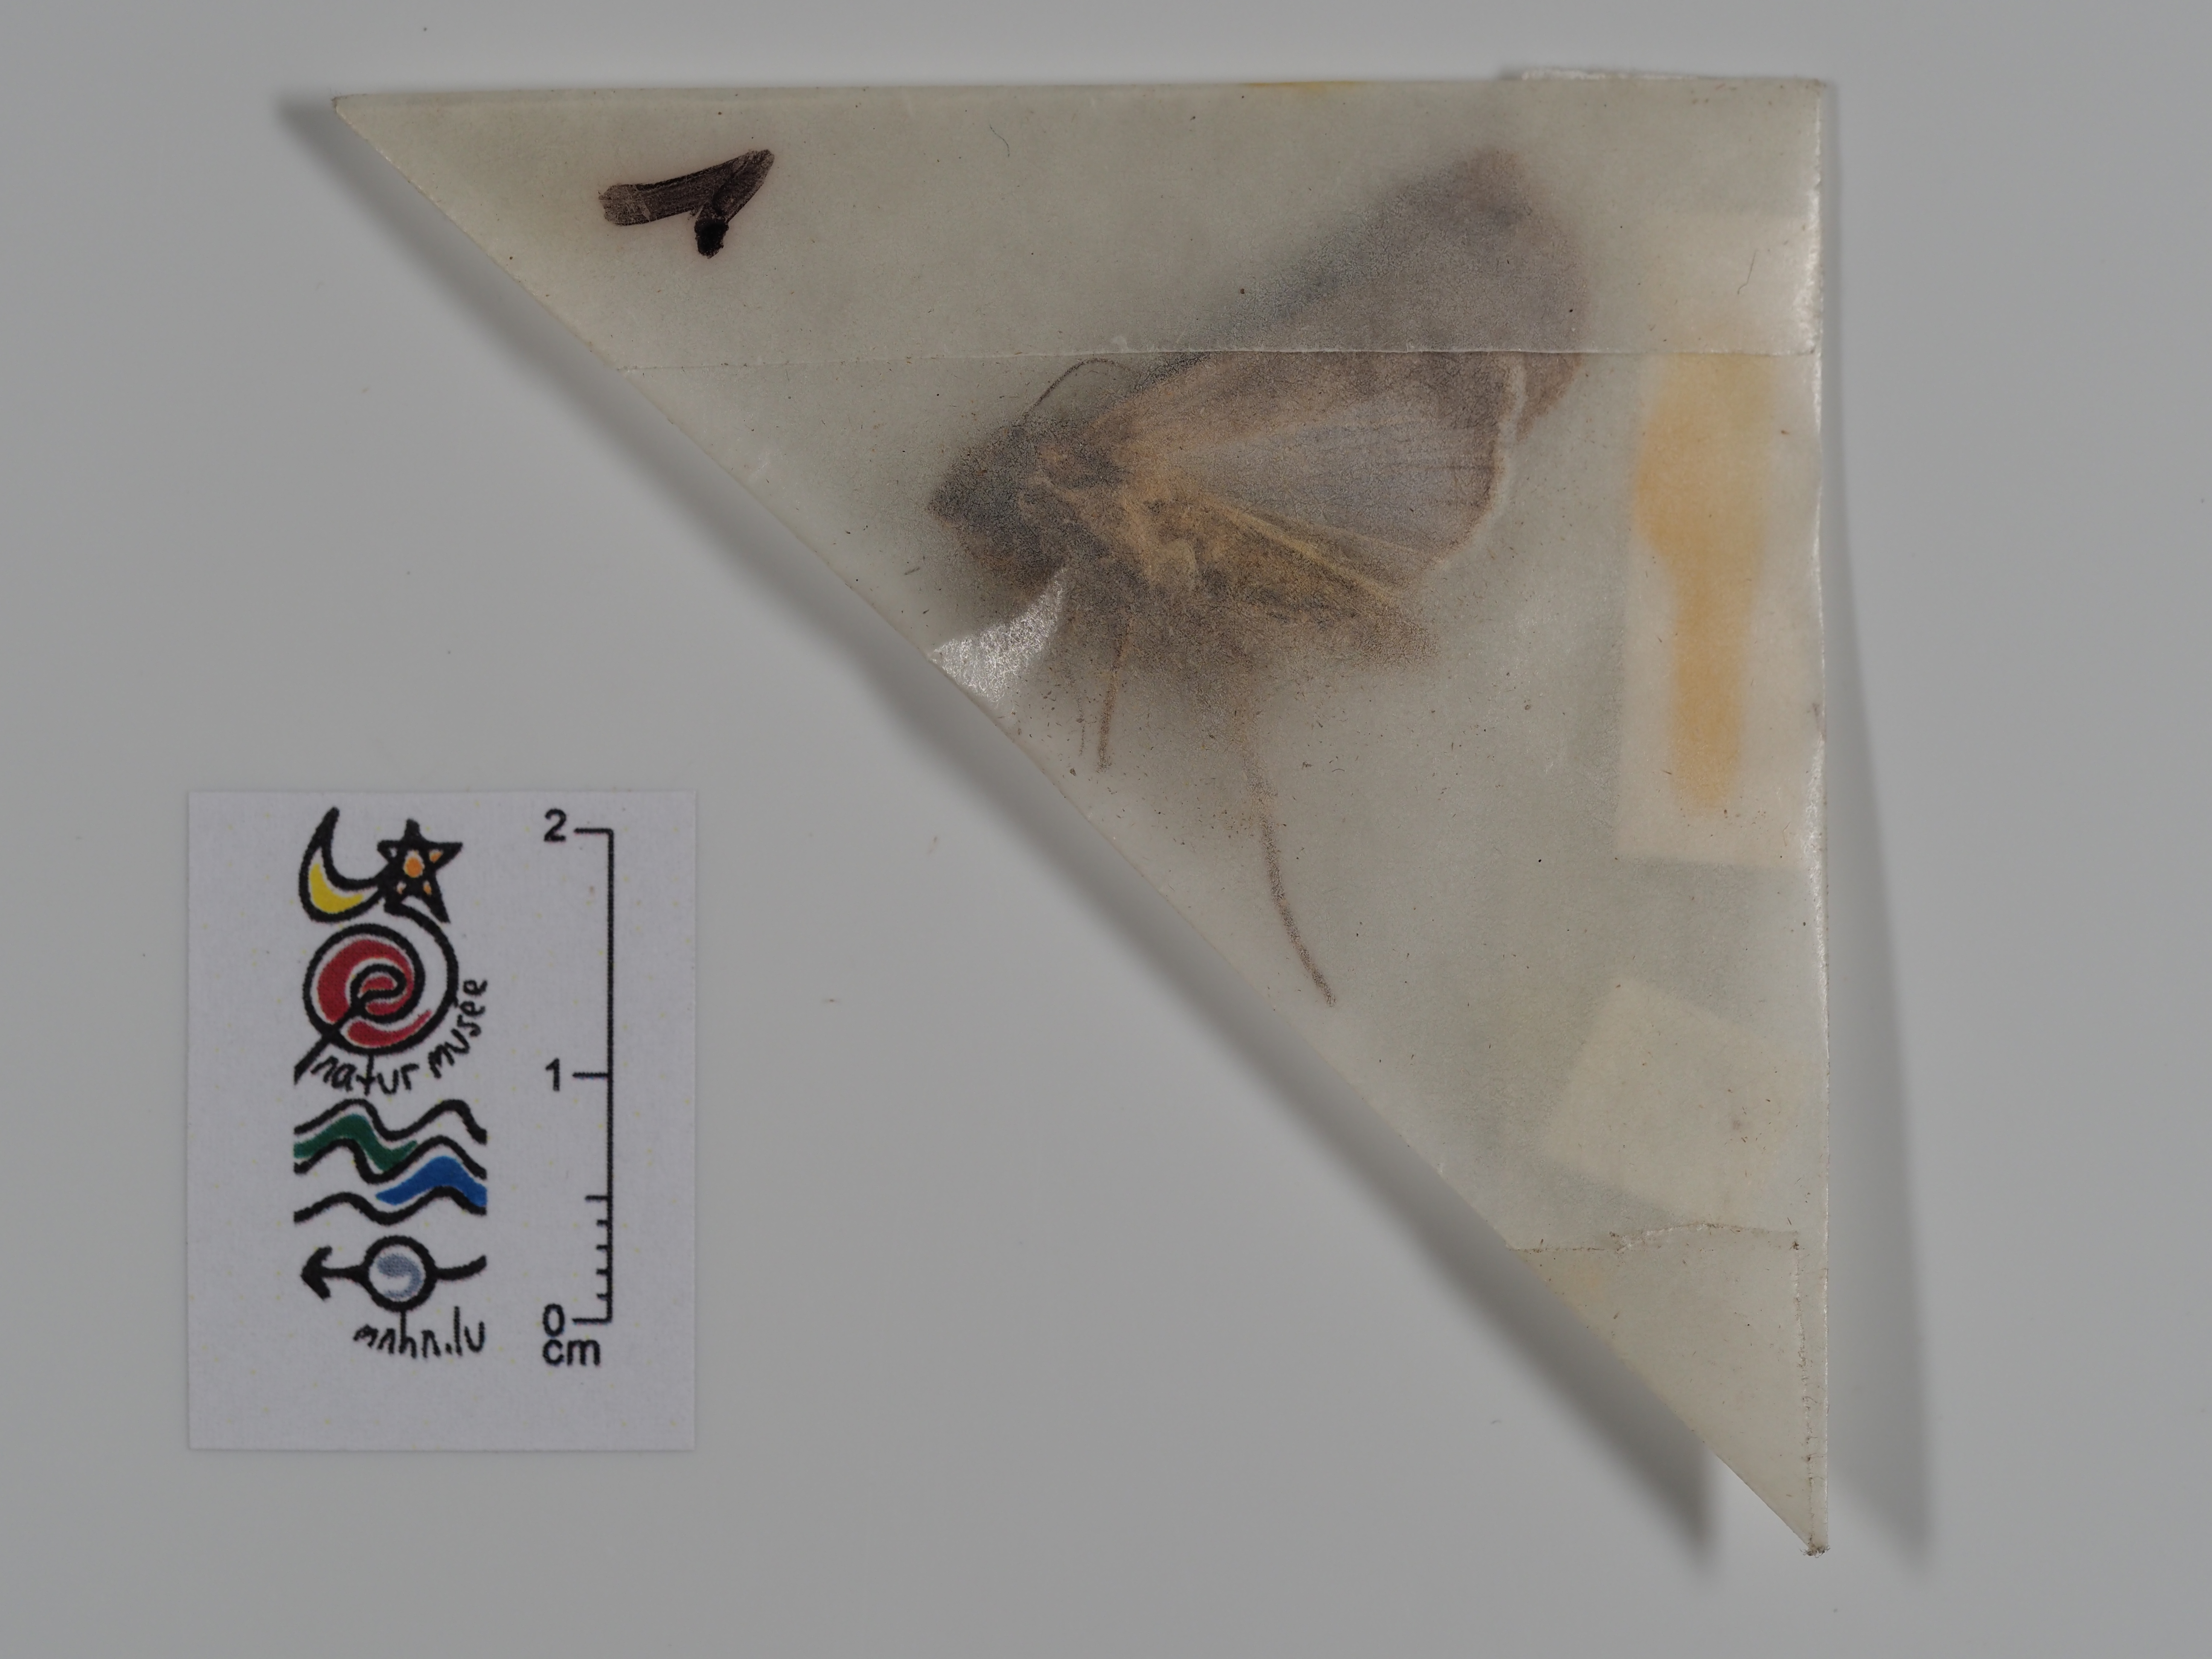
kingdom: Animalia
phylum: Arthropoda
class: Insecta
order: Lepidoptera
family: Noctuidae
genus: Agrotis
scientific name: Agrotis ipsilon
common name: Dark sword-grass
